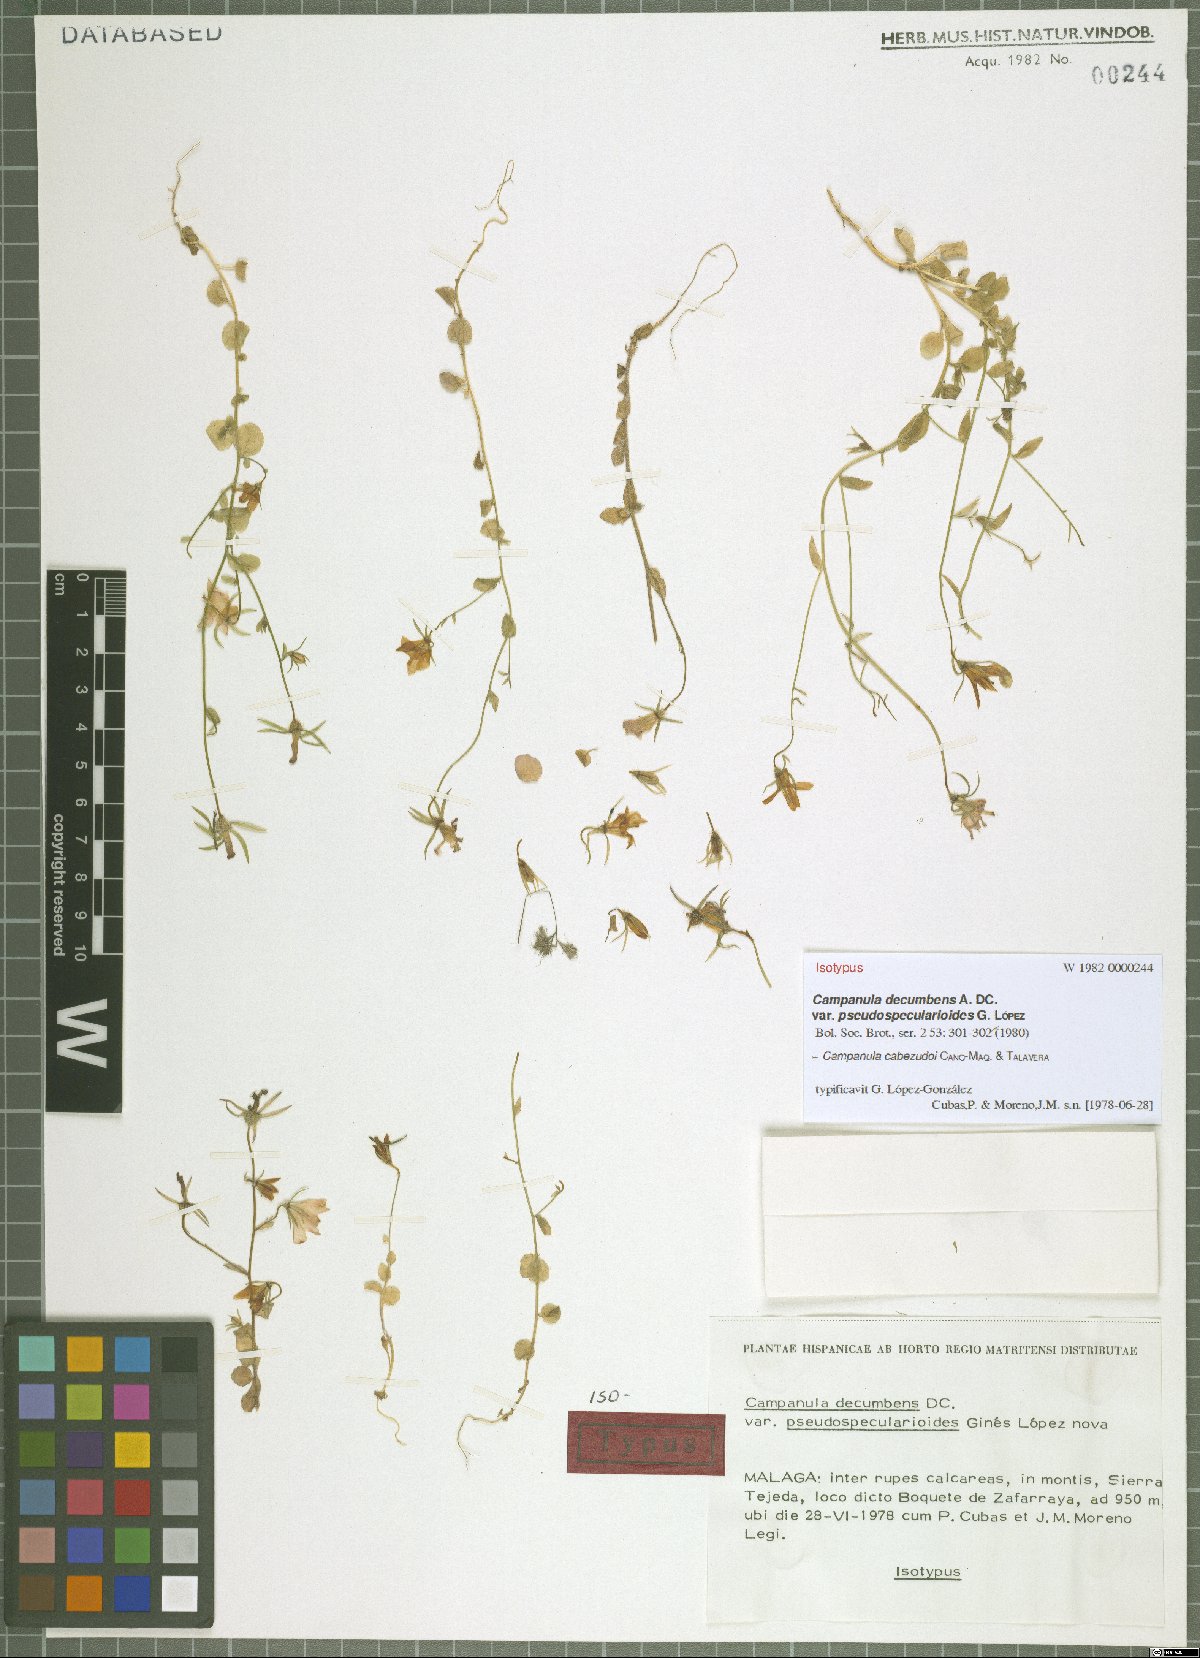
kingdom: Plantae
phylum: Tracheophyta
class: Magnoliopsida
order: Asterales
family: Campanulaceae
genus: Campanula
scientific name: Campanula cabezudoi
